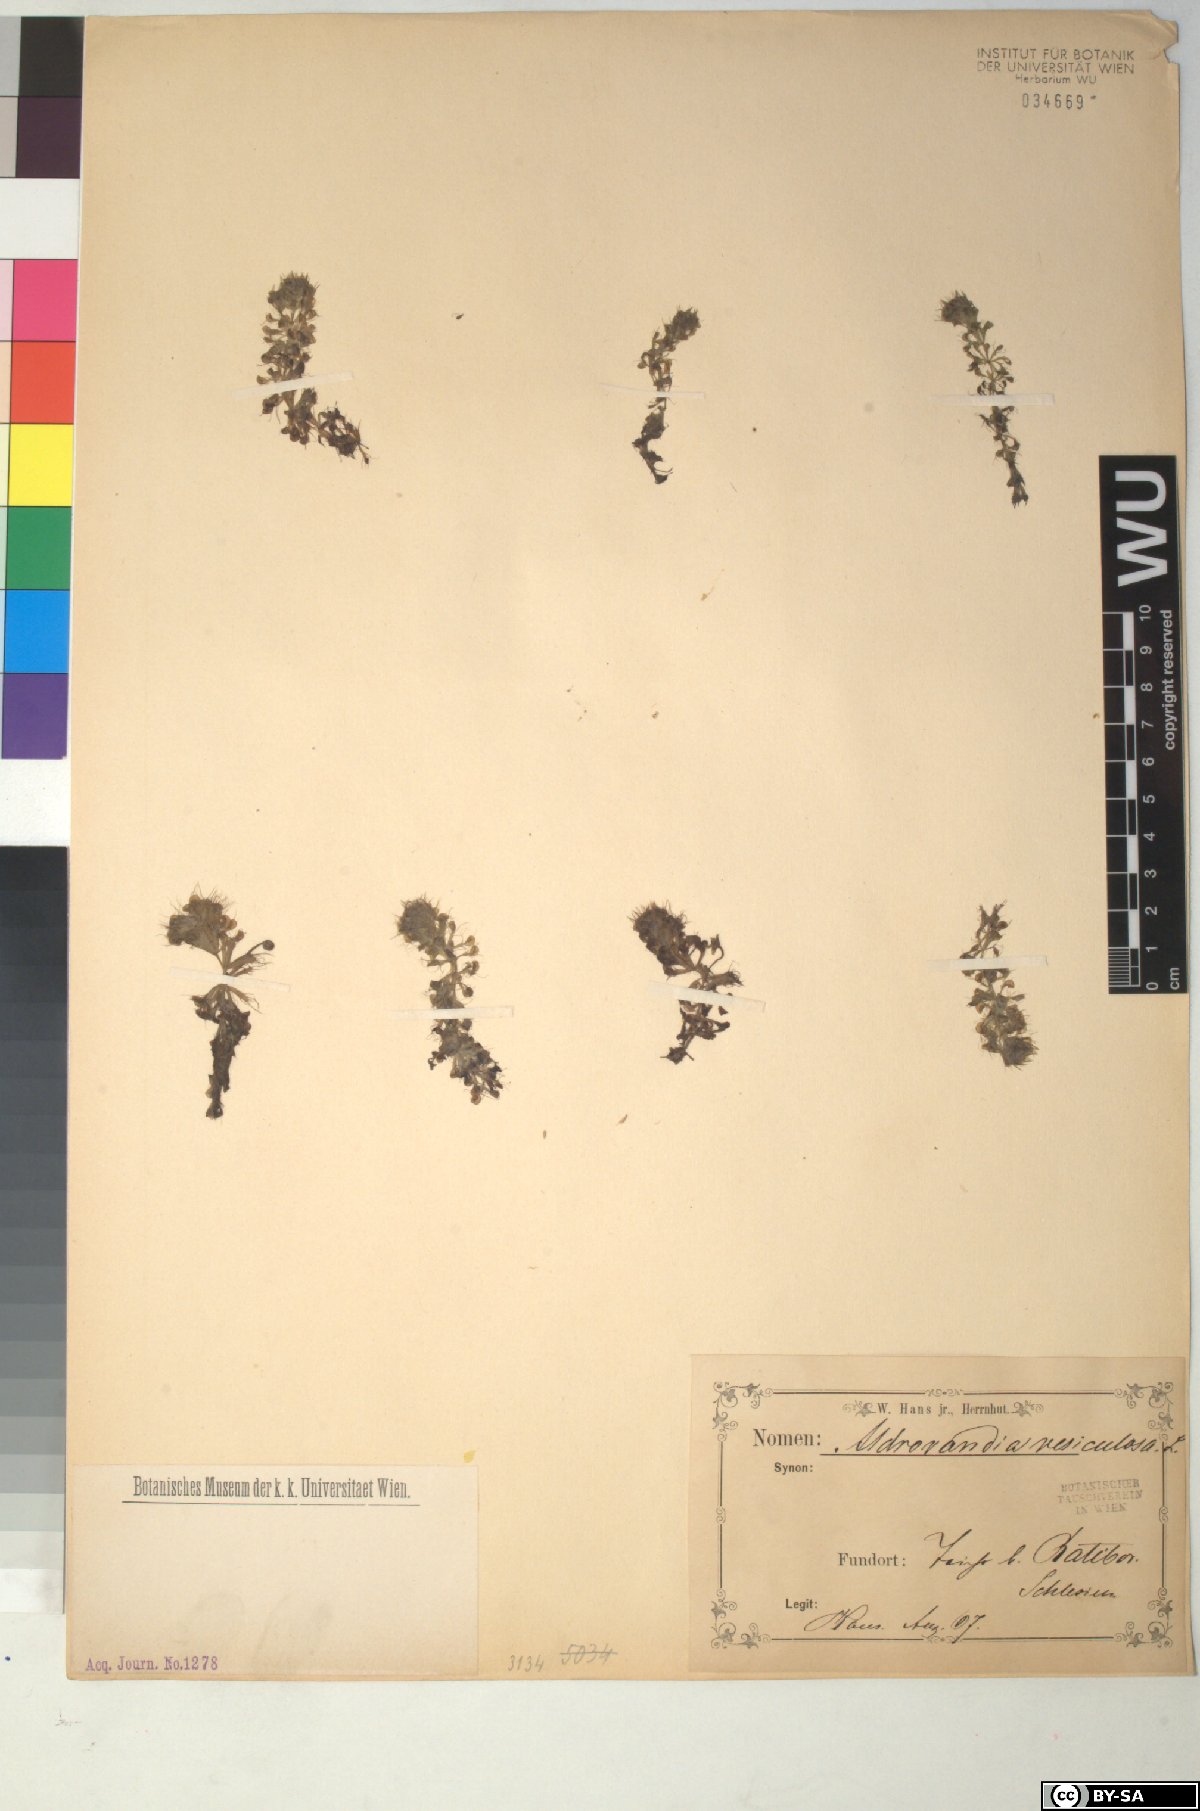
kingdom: Plantae
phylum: Tracheophyta
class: Magnoliopsida
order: Caryophyllales
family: Droseraceae
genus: Aldrovanda
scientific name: Aldrovanda vesiculosa
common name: Waterwheel plant
